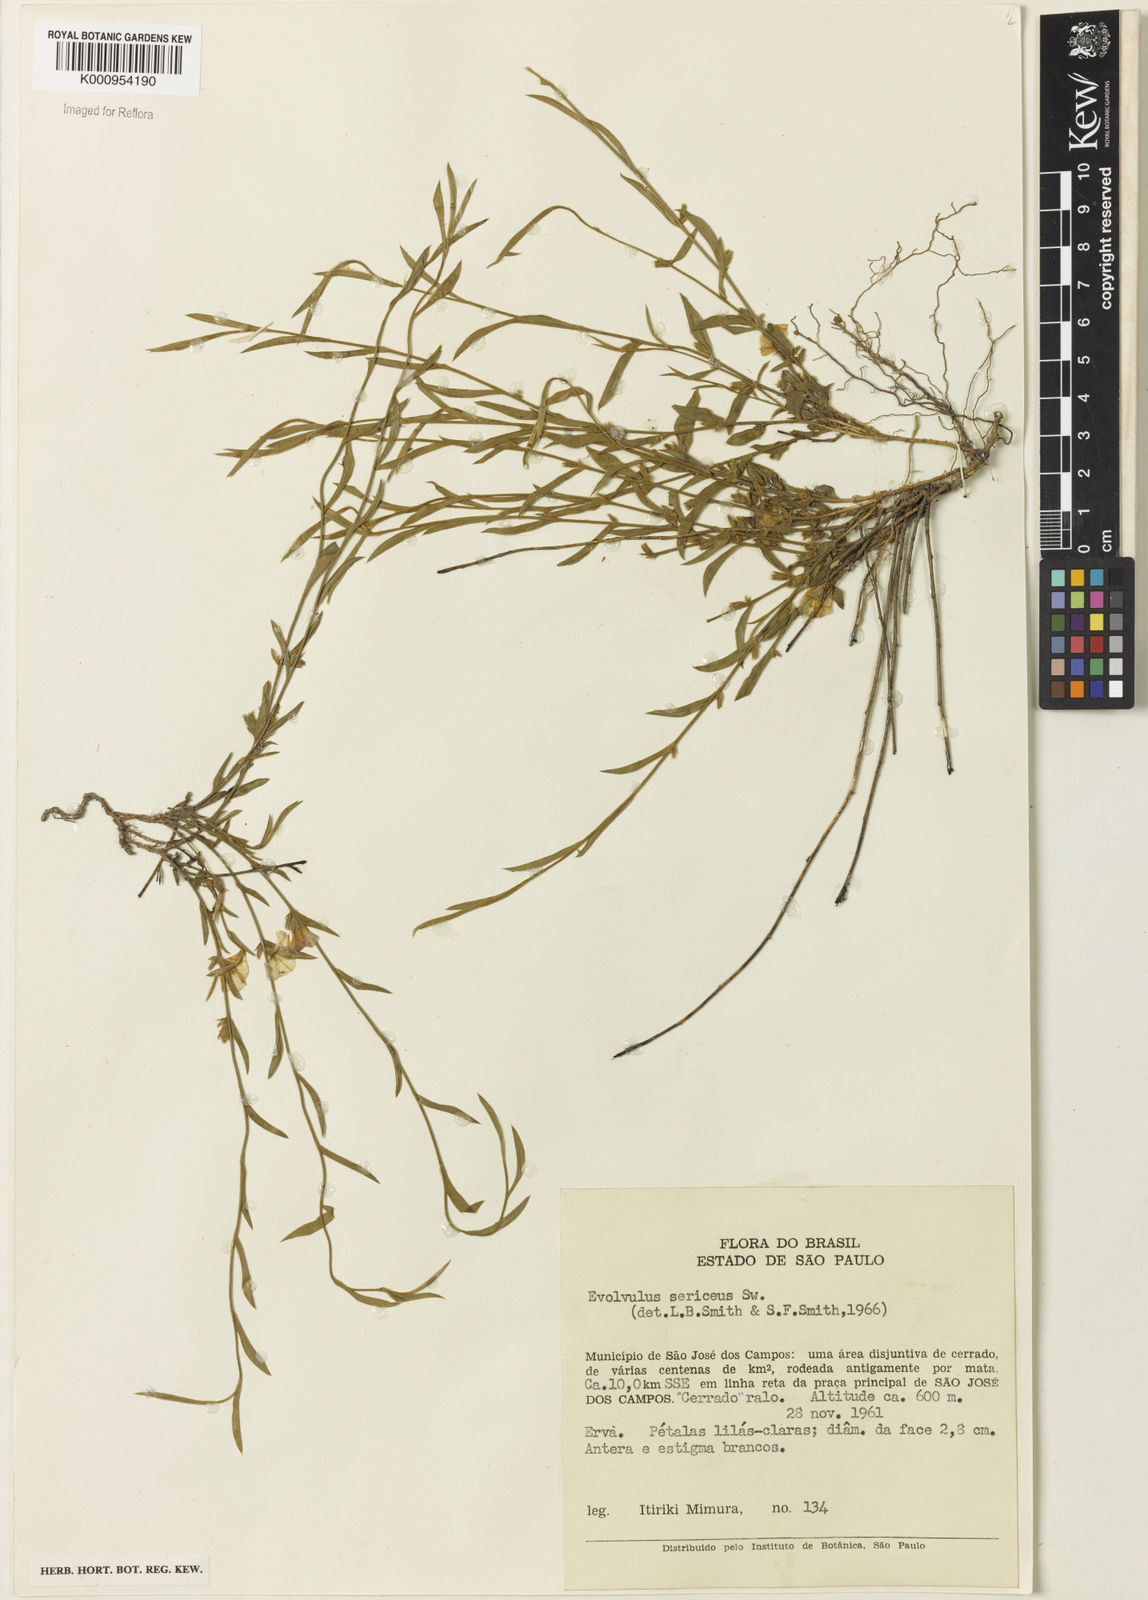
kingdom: Plantae
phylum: Tracheophyta
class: Magnoliopsida
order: Solanales
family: Convolvulaceae
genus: Evolvulus
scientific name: Evolvulus
